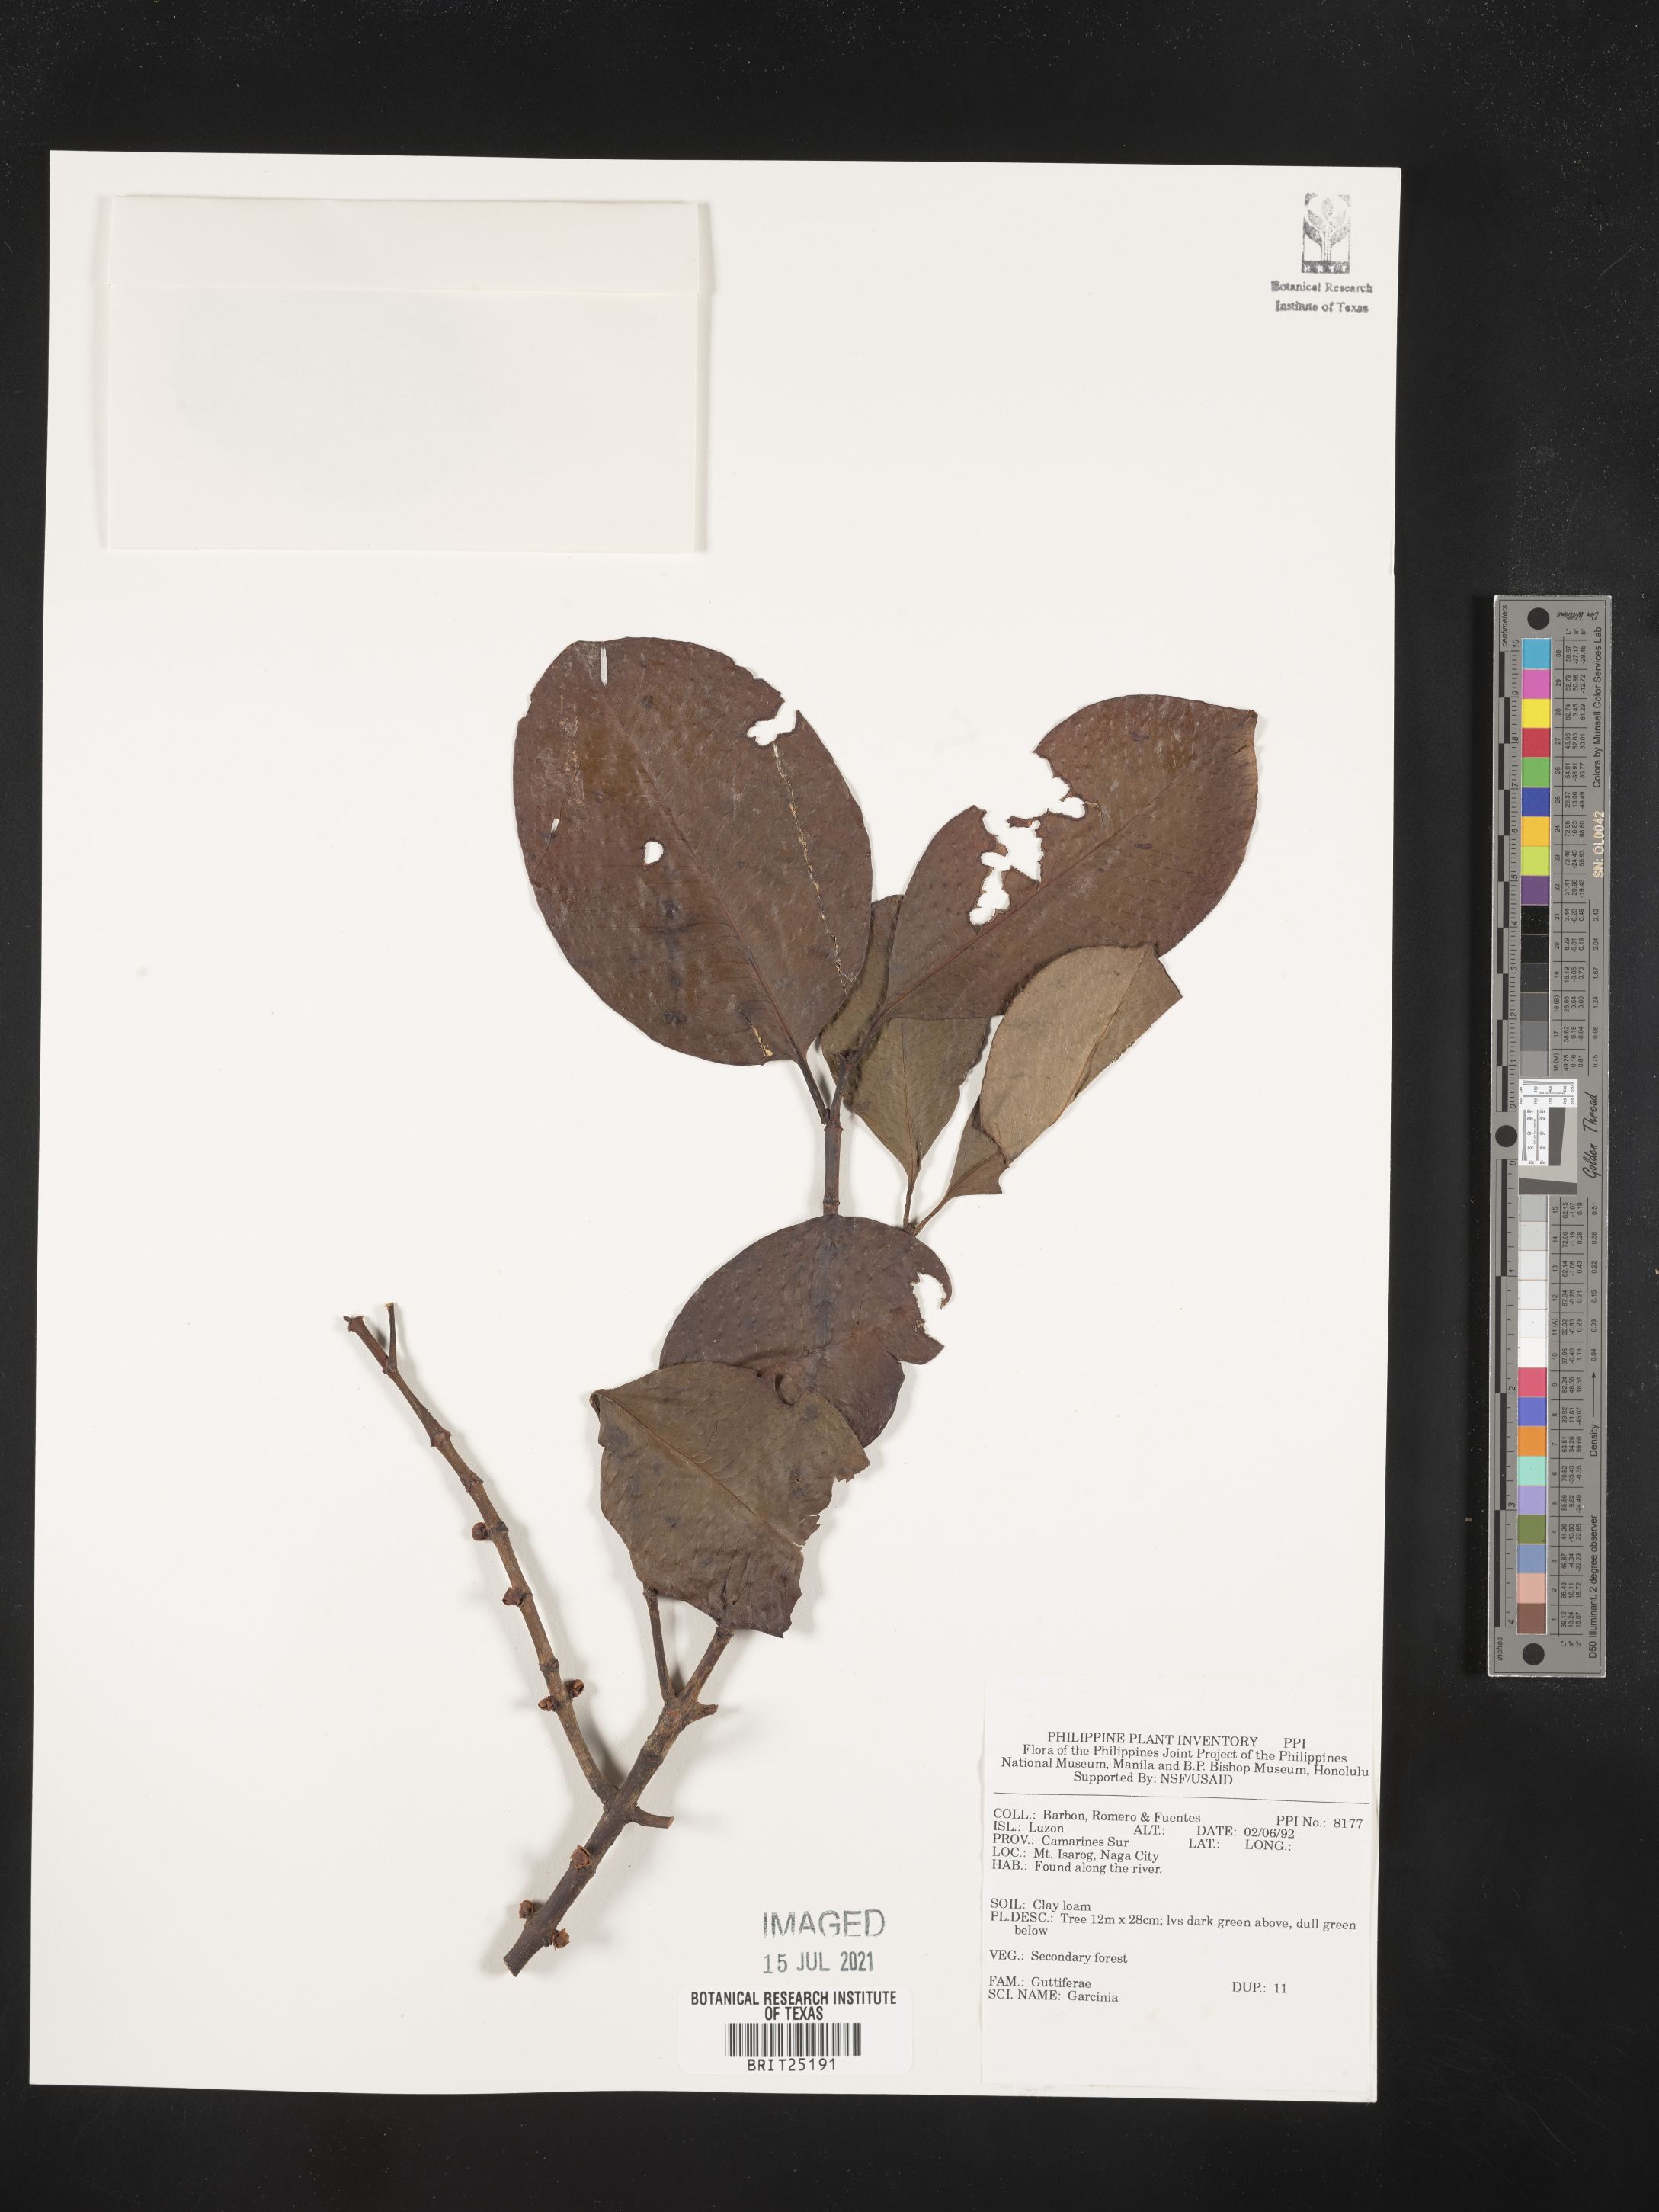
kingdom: Plantae
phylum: Tracheophyta
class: Magnoliopsida
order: Malpighiales
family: Clusiaceae
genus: Garcinia
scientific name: Garcinia
